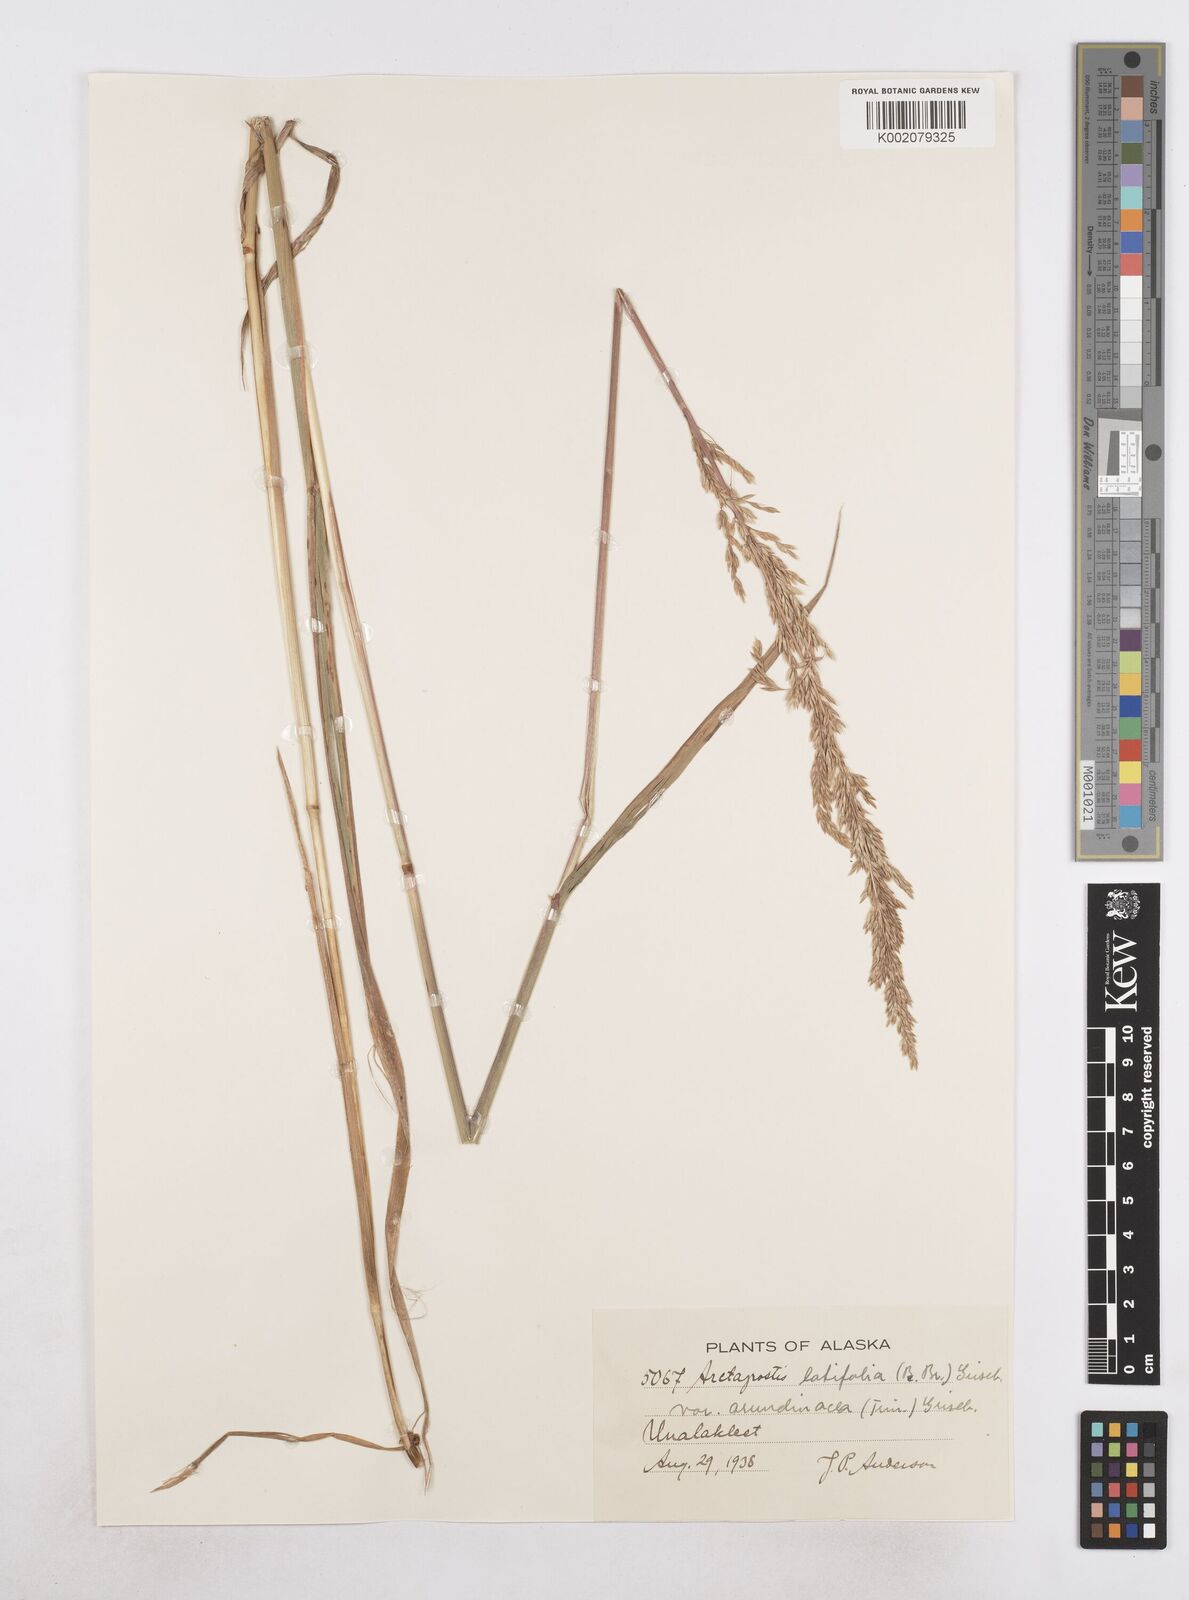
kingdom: Plantae
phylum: Tracheophyta
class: Liliopsida
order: Poales
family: Poaceae
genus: Arctagrostis
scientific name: Arctagrostis arundinacea
